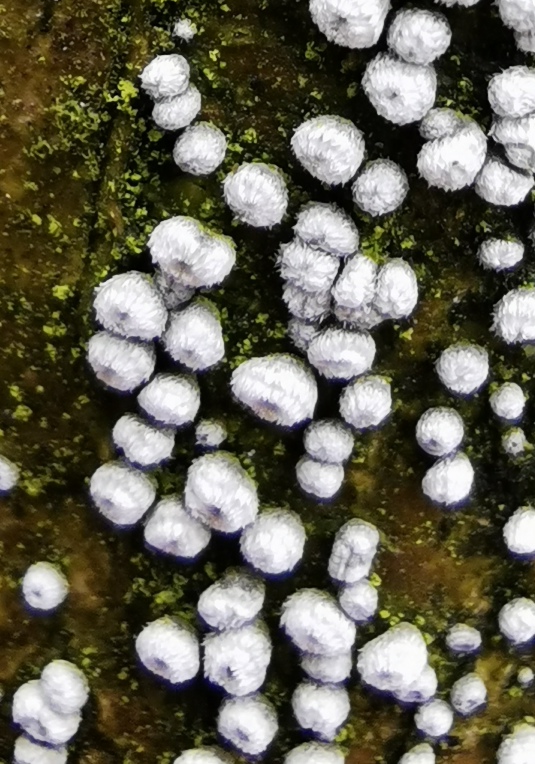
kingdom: Fungi
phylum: Ascomycota
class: Leotiomycetes
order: Helotiales
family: Lachnaceae
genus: Lachnella
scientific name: Lachnella
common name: frynserede
